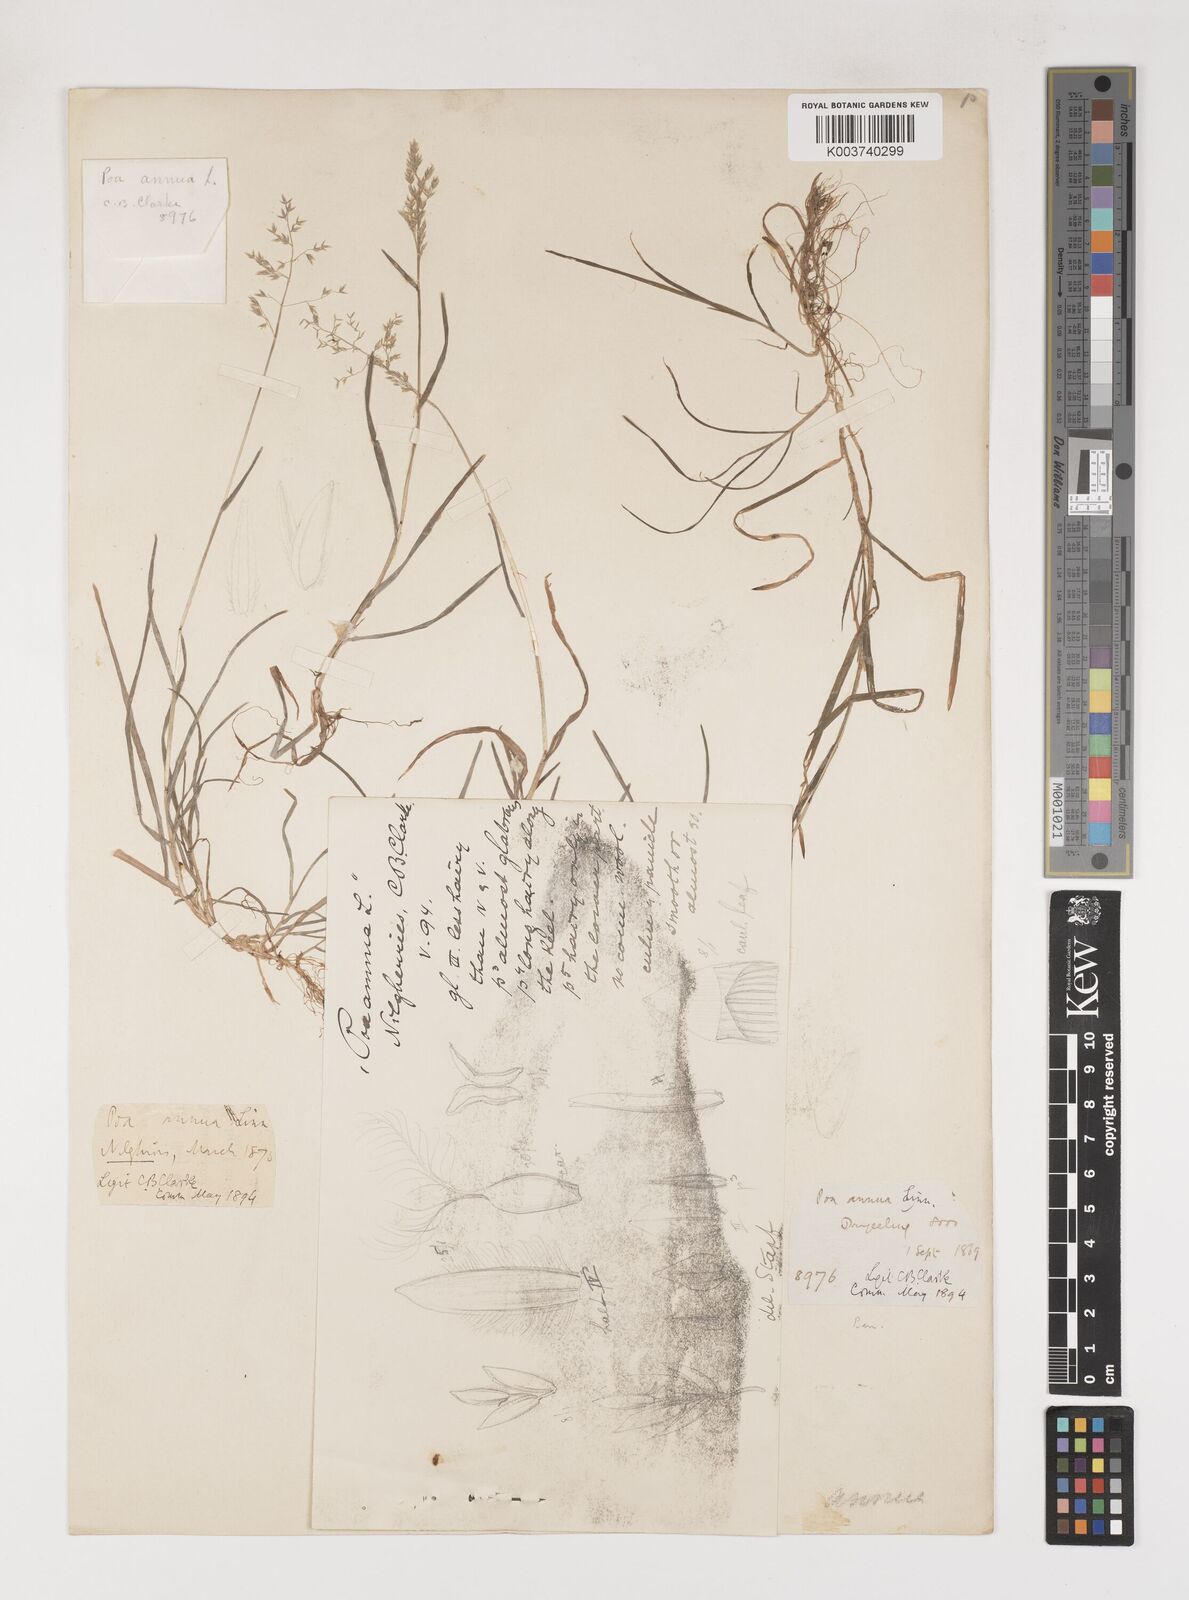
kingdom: Plantae
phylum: Tracheophyta
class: Liliopsida
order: Poales
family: Poaceae
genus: Poa
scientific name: Poa annua
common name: Annual bluegrass
